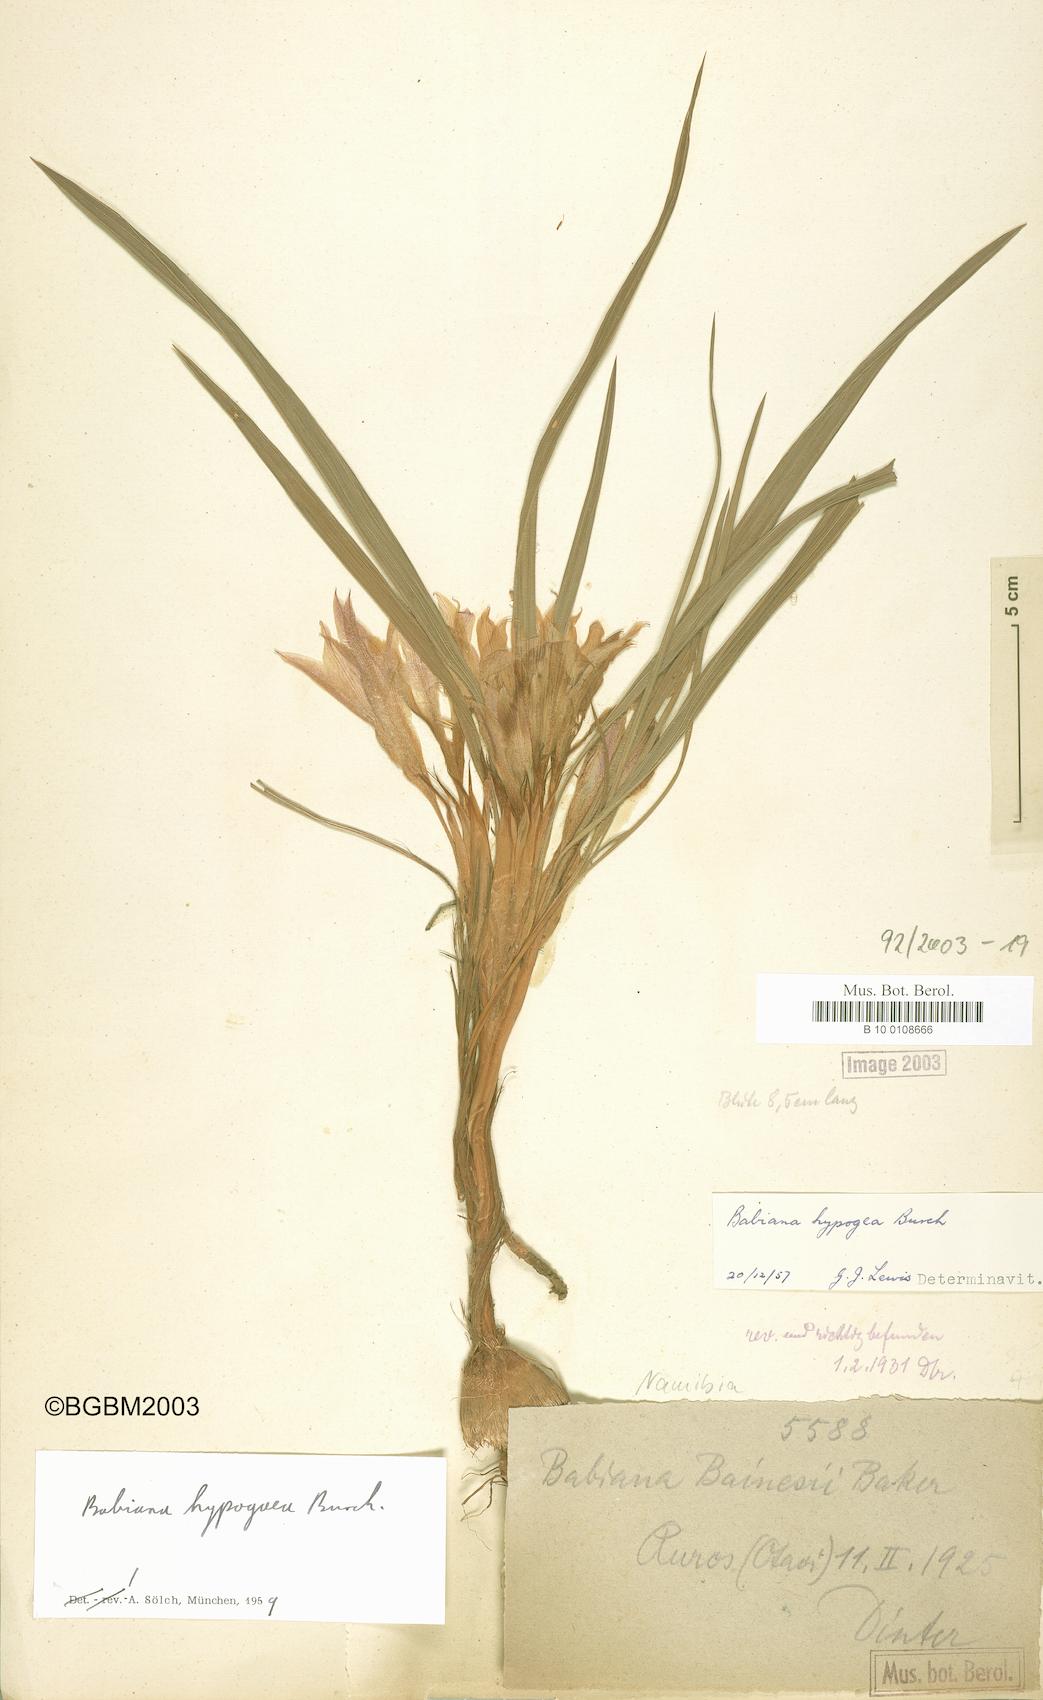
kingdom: Plantae
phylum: Tracheophyta
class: Liliopsida
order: Asparagales
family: Iridaceae
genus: Babiana
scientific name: Babiana hypogaea
